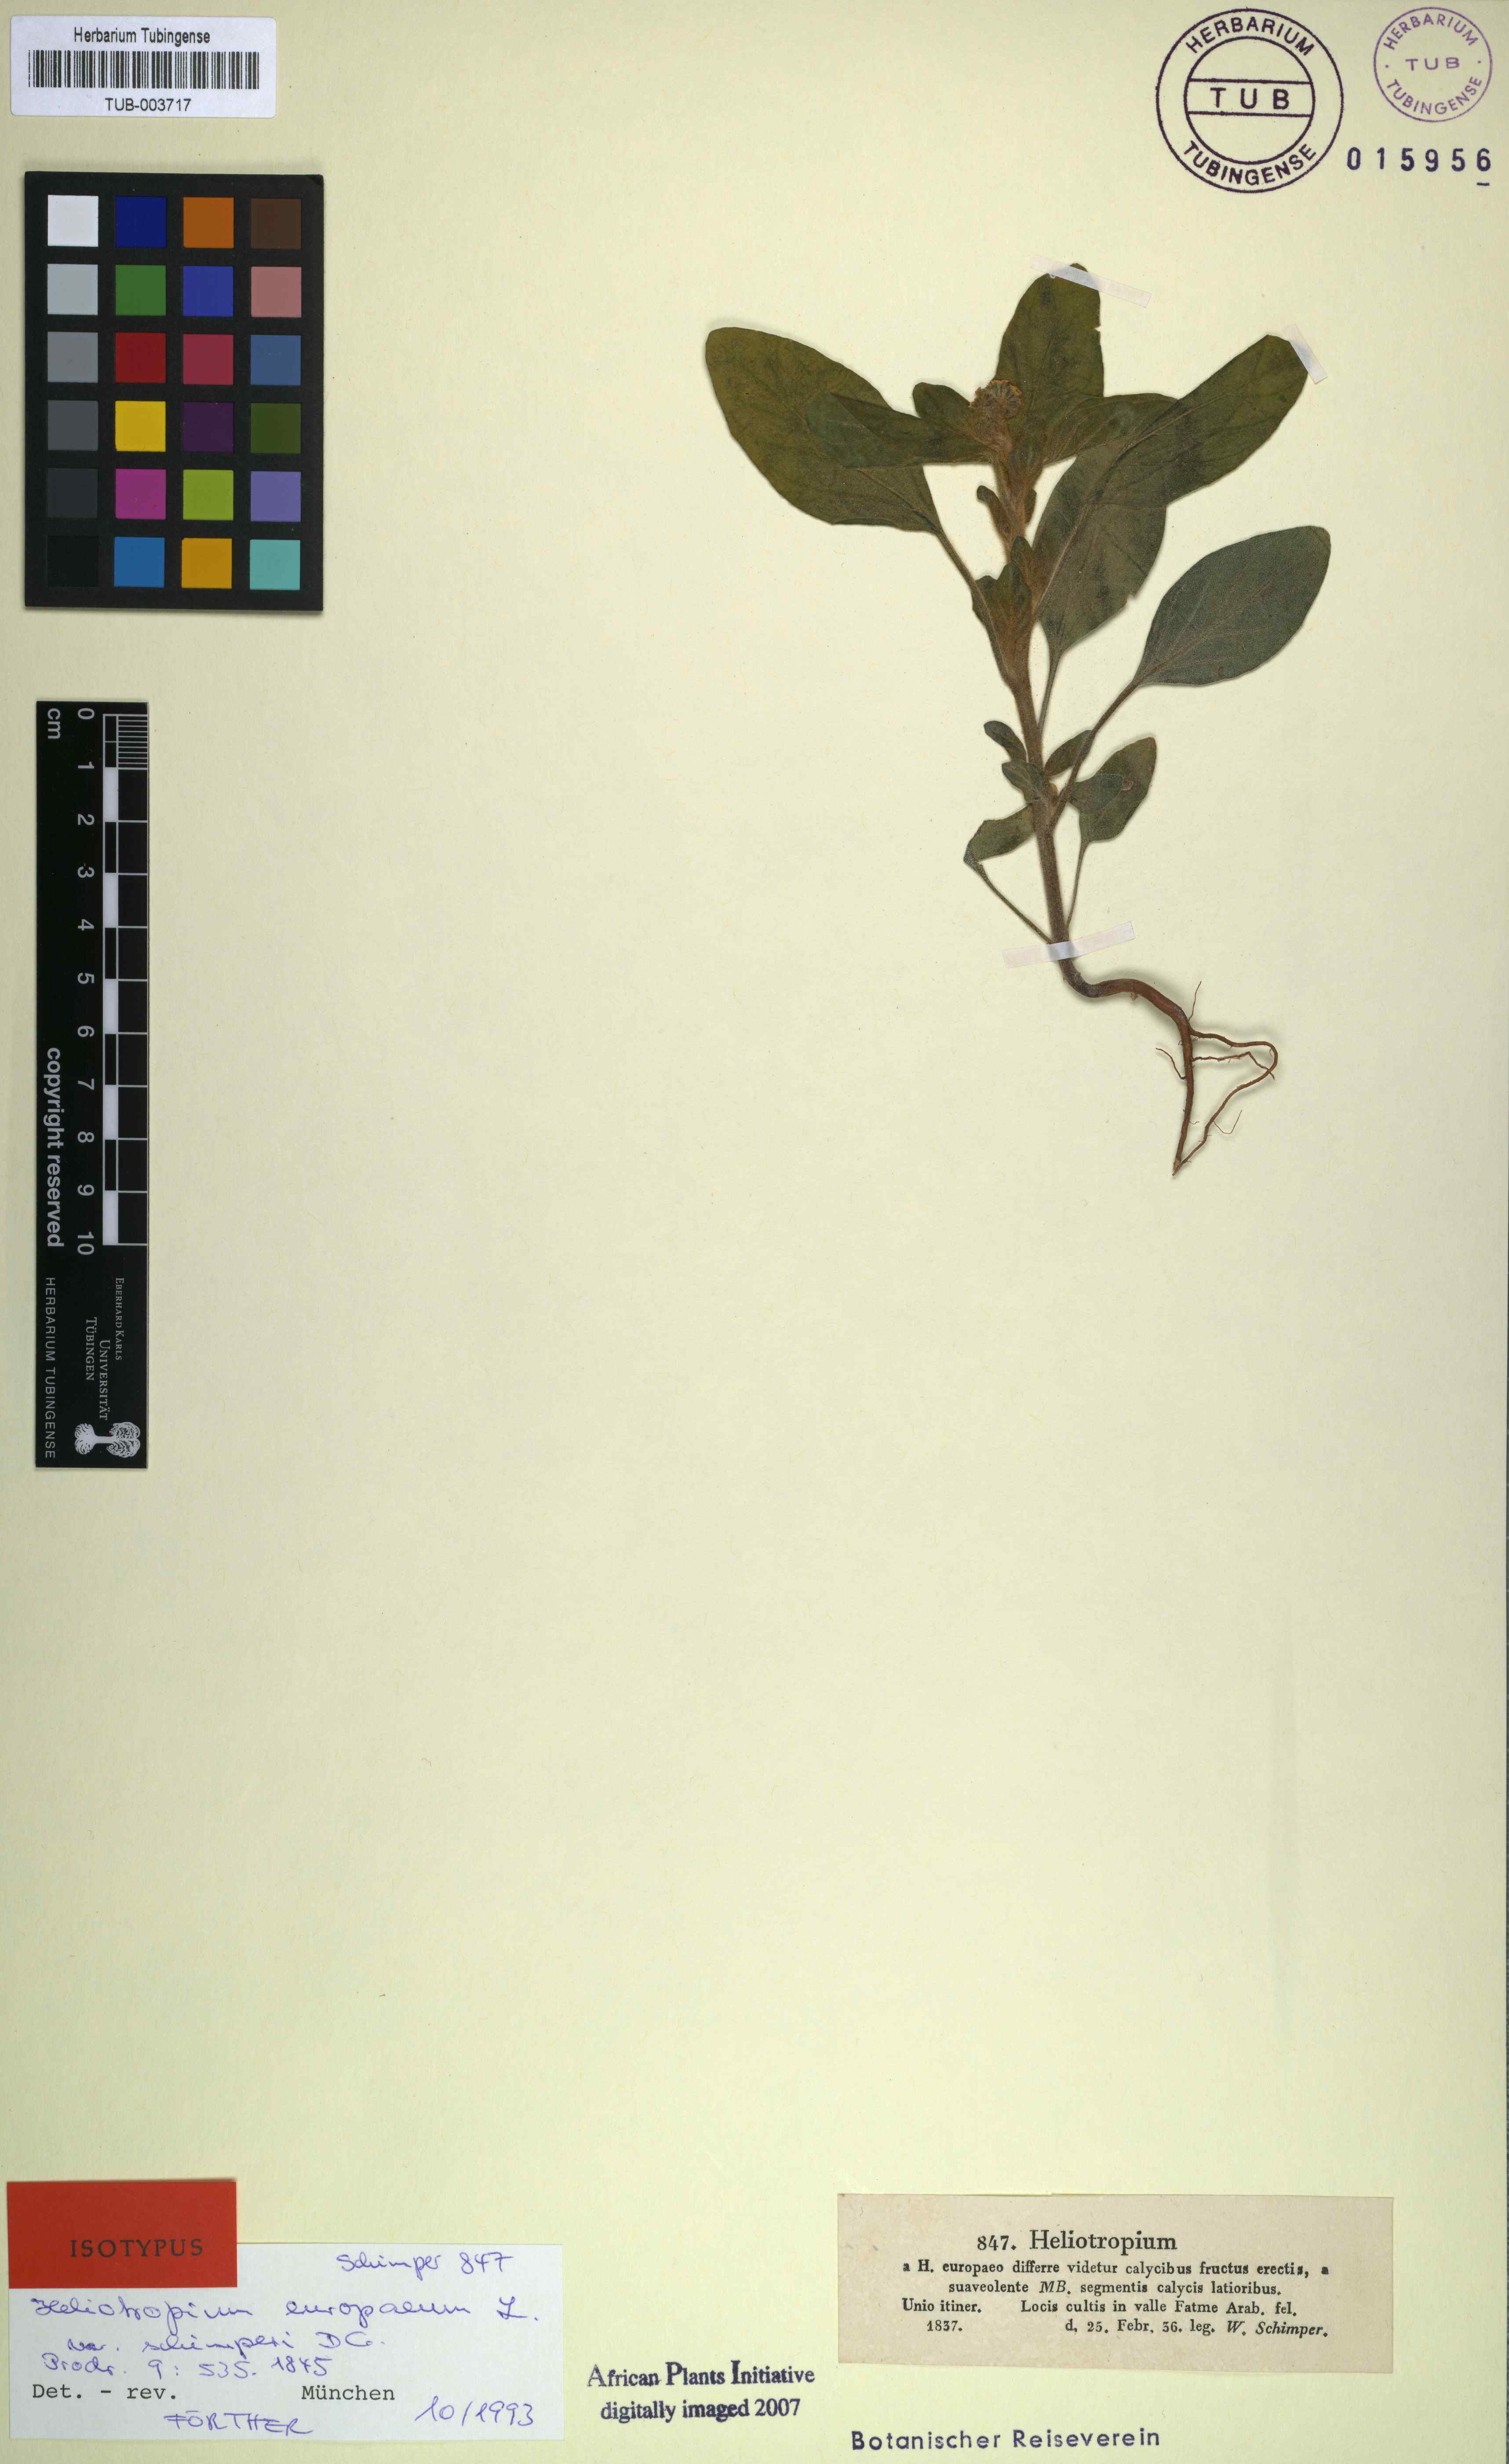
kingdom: Plantae
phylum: Tracheophyta
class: Magnoliopsida
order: Boraginales
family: Heliotropiaceae
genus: Heliotropium
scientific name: Heliotropium europaeum
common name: European heliotrope
